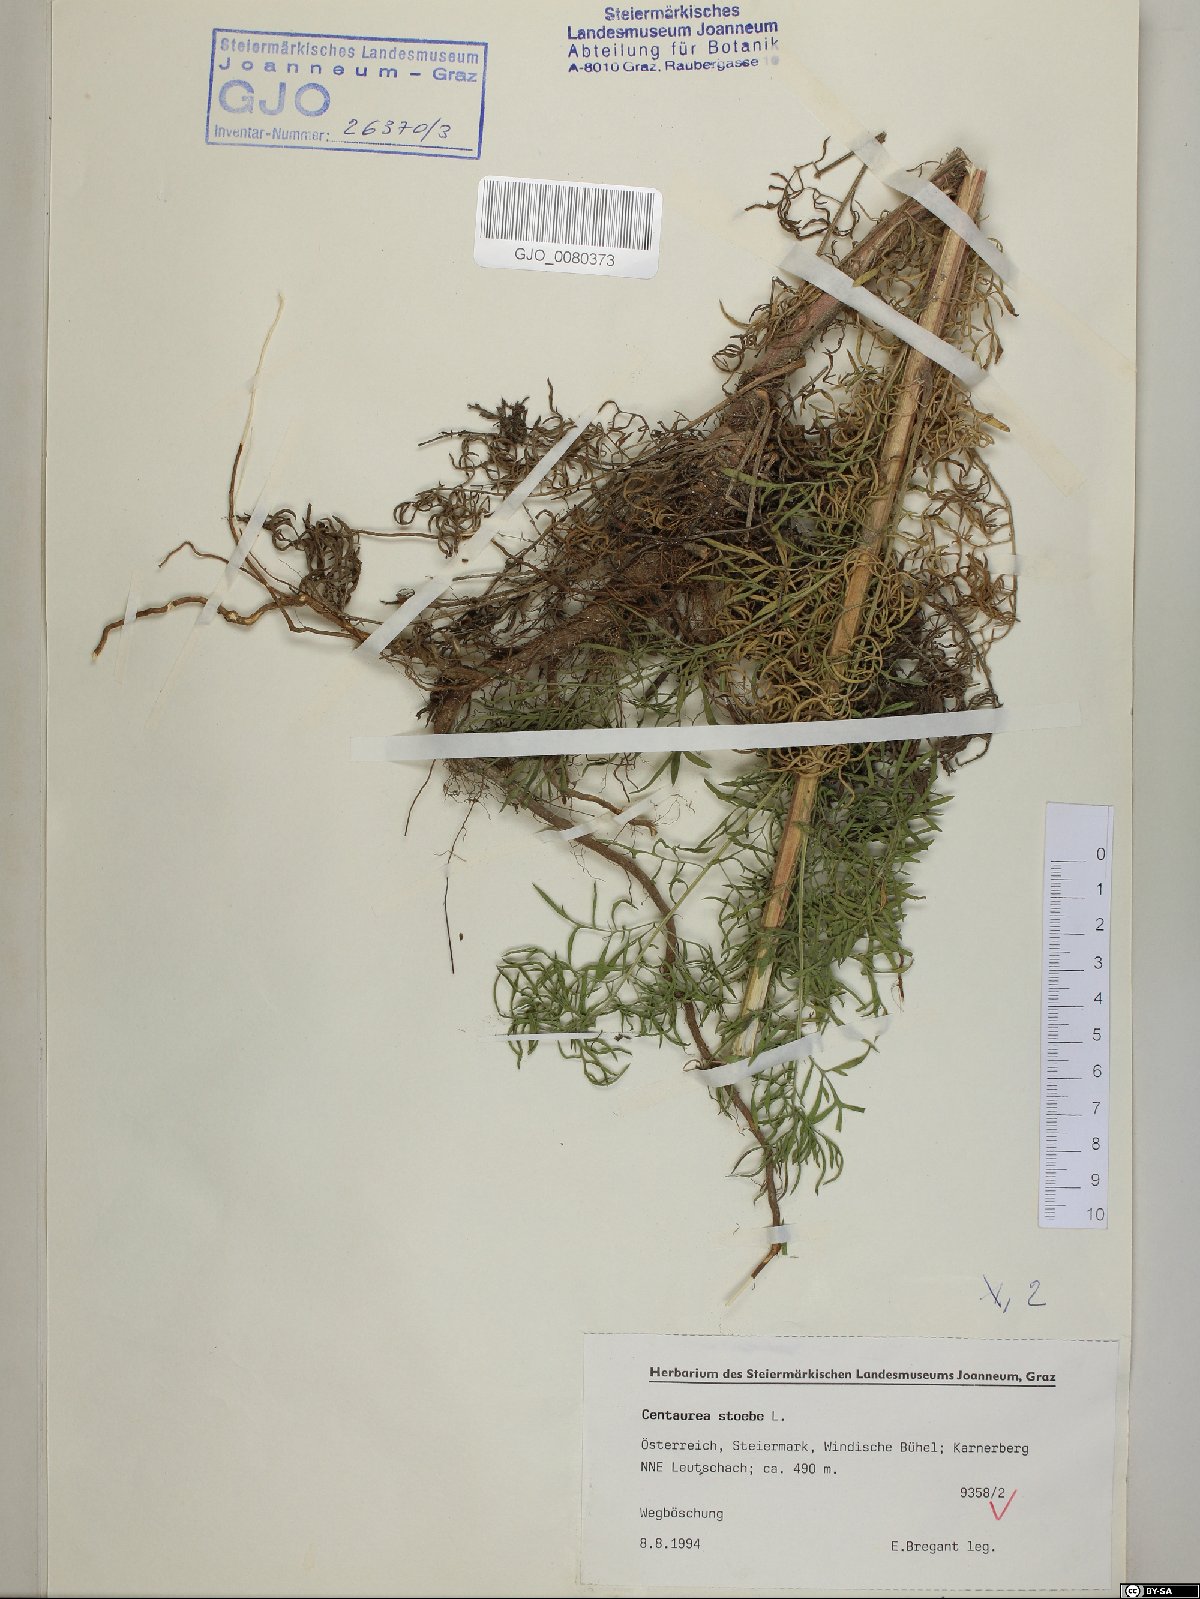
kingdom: Plantae
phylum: Tracheophyta
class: Magnoliopsida
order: Asterales
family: Asteraceae
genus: Centaurea
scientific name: Centaurea stoebe
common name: Spotted knapweed
